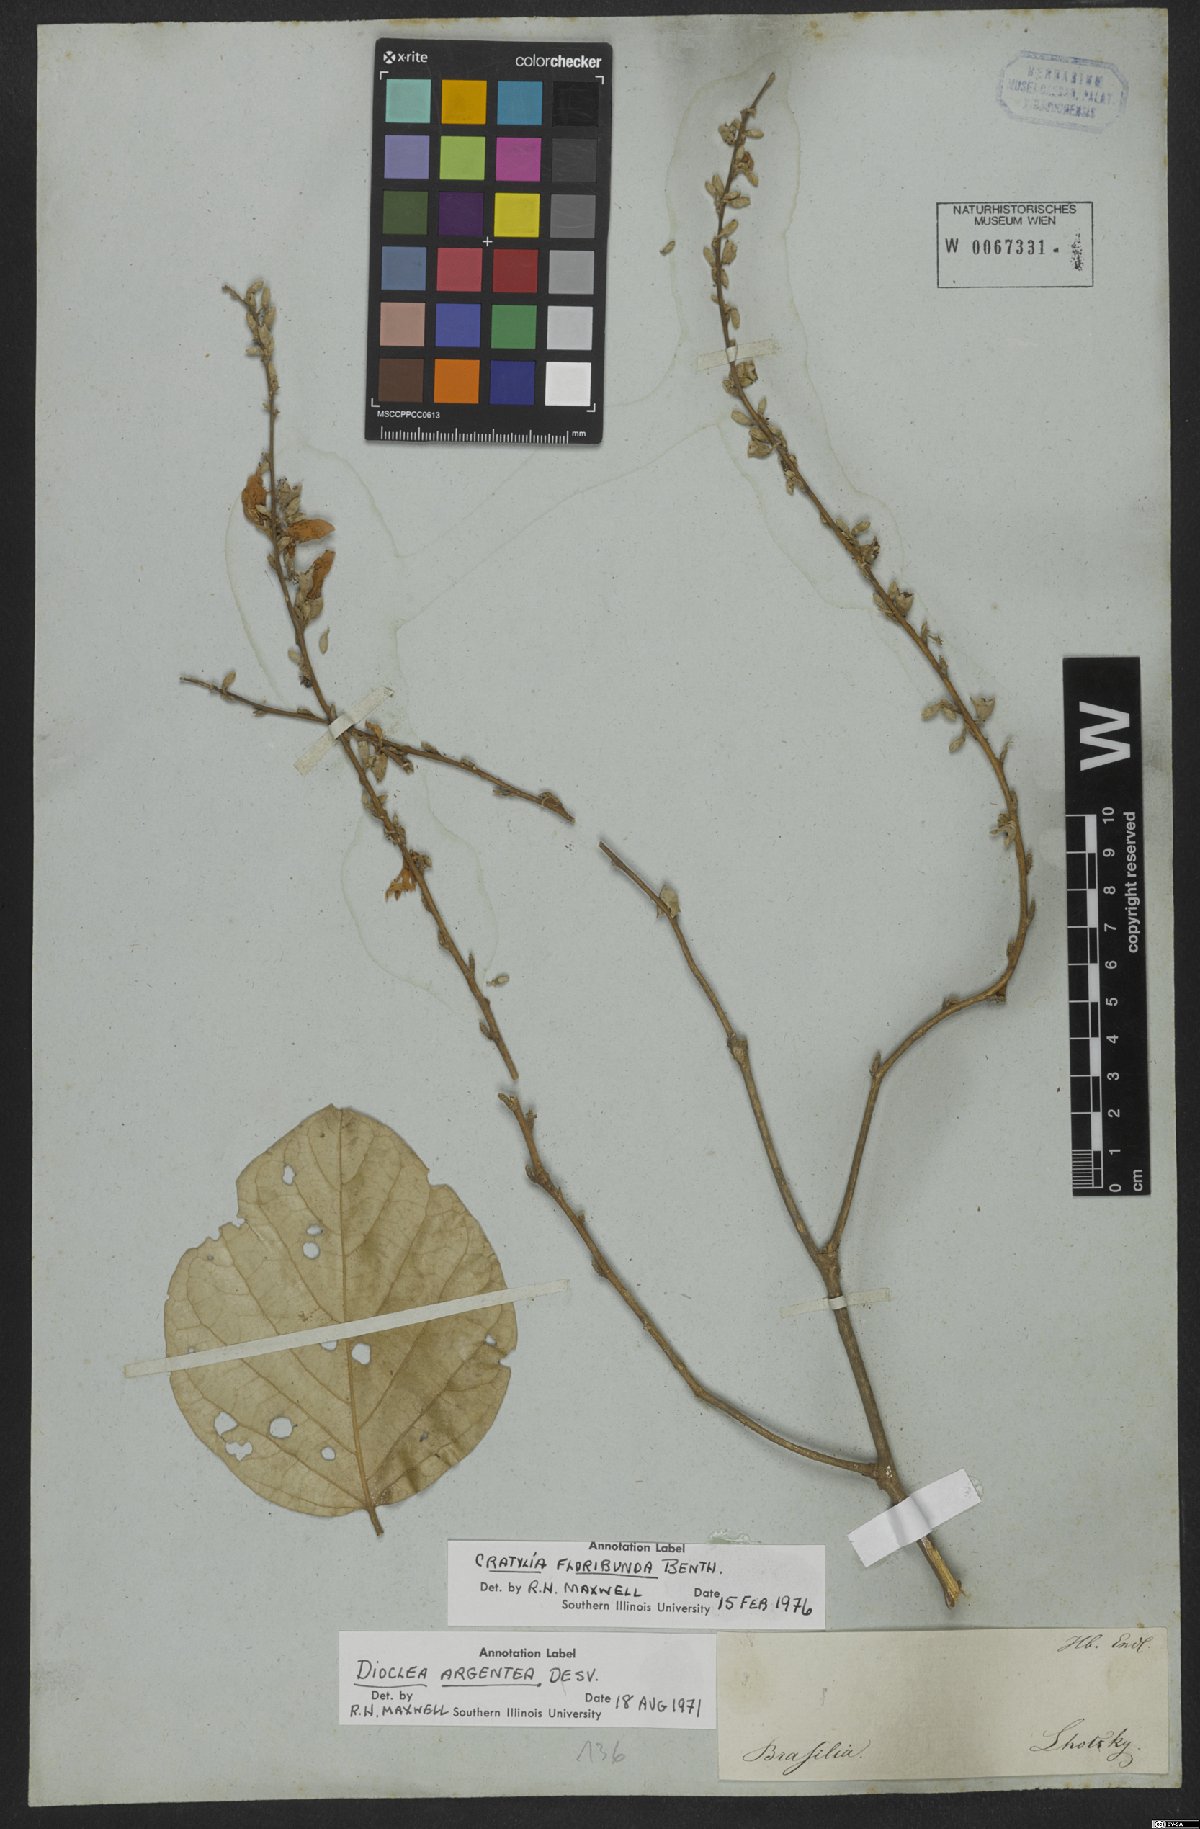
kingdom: Plantae
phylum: Tracheophyta
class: Magnoliopsida
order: Fabales
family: Fabaceae
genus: Cratylia
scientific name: Cratylia argentea
